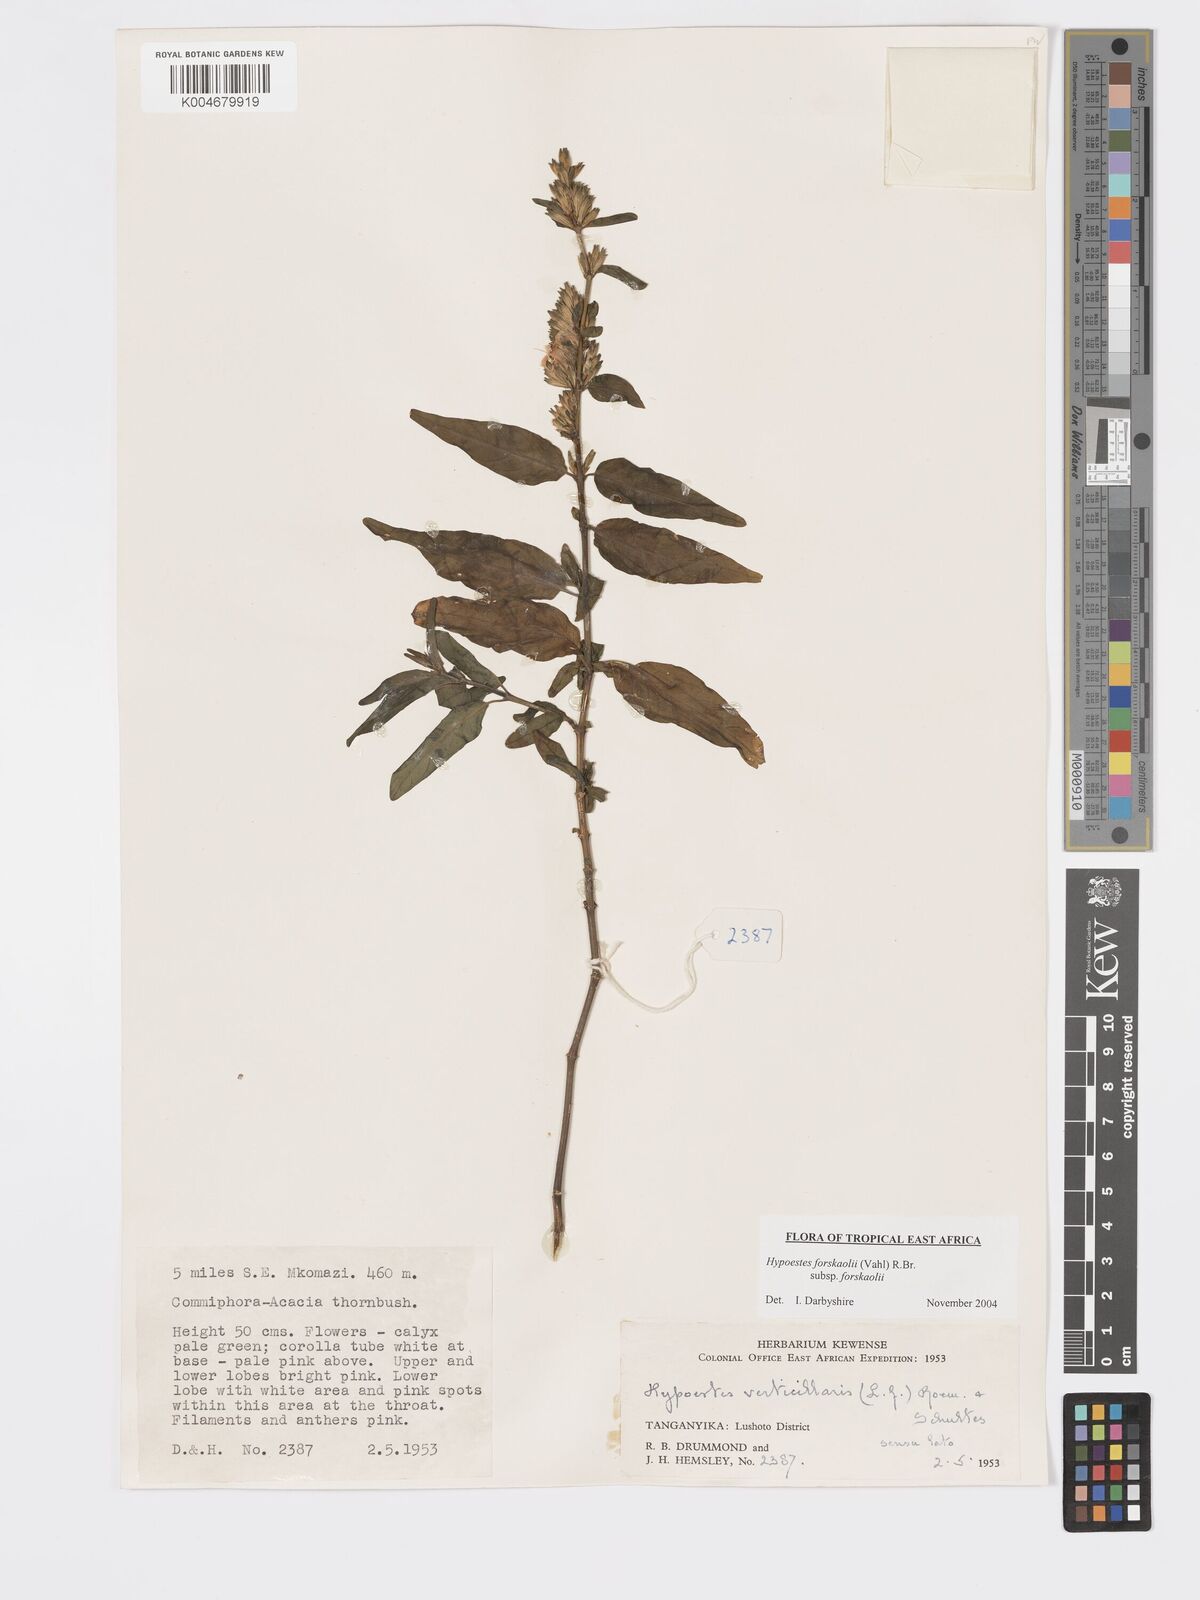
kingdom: Plantae
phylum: Tracheophyta
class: Magnoliopsida
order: Lamiales
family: Acanthaceae
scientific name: Acanthaceae
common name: Acanthaceae
